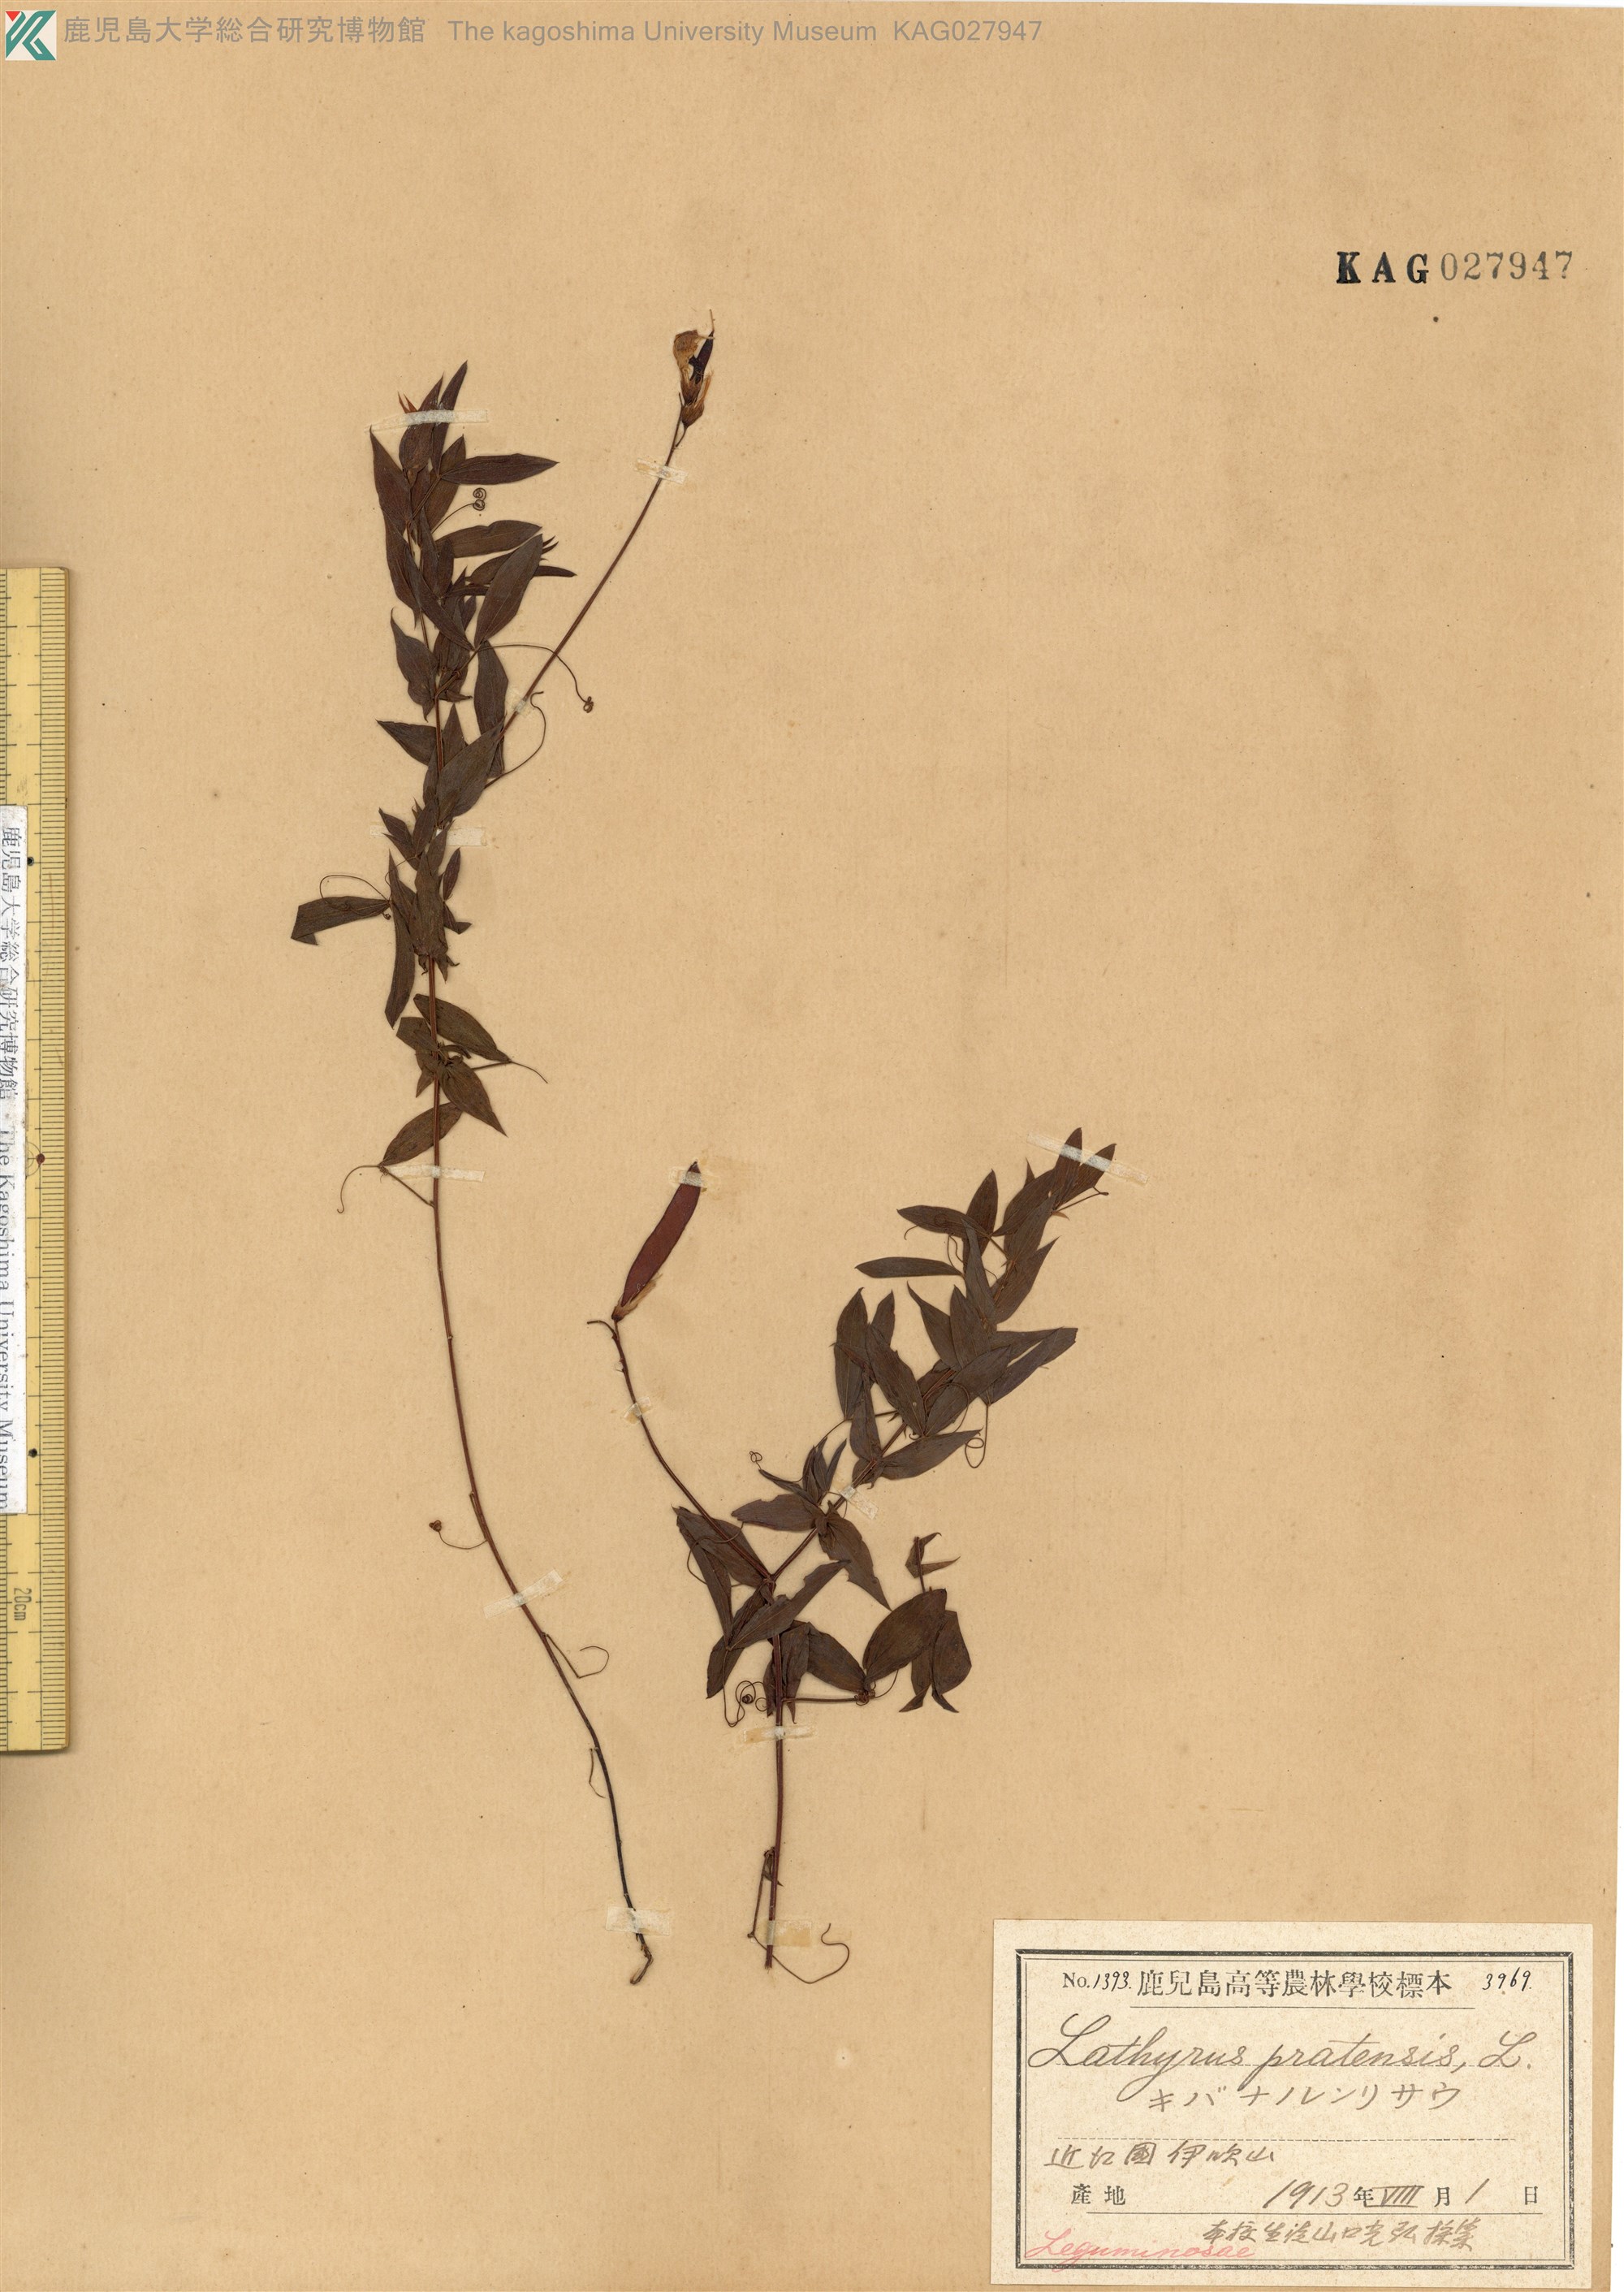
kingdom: Plantae
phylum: Tracheophyta
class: Magnoliopsida
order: Fabales
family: Fabaceae
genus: Lathyrus
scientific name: Lathyrus pratensis
